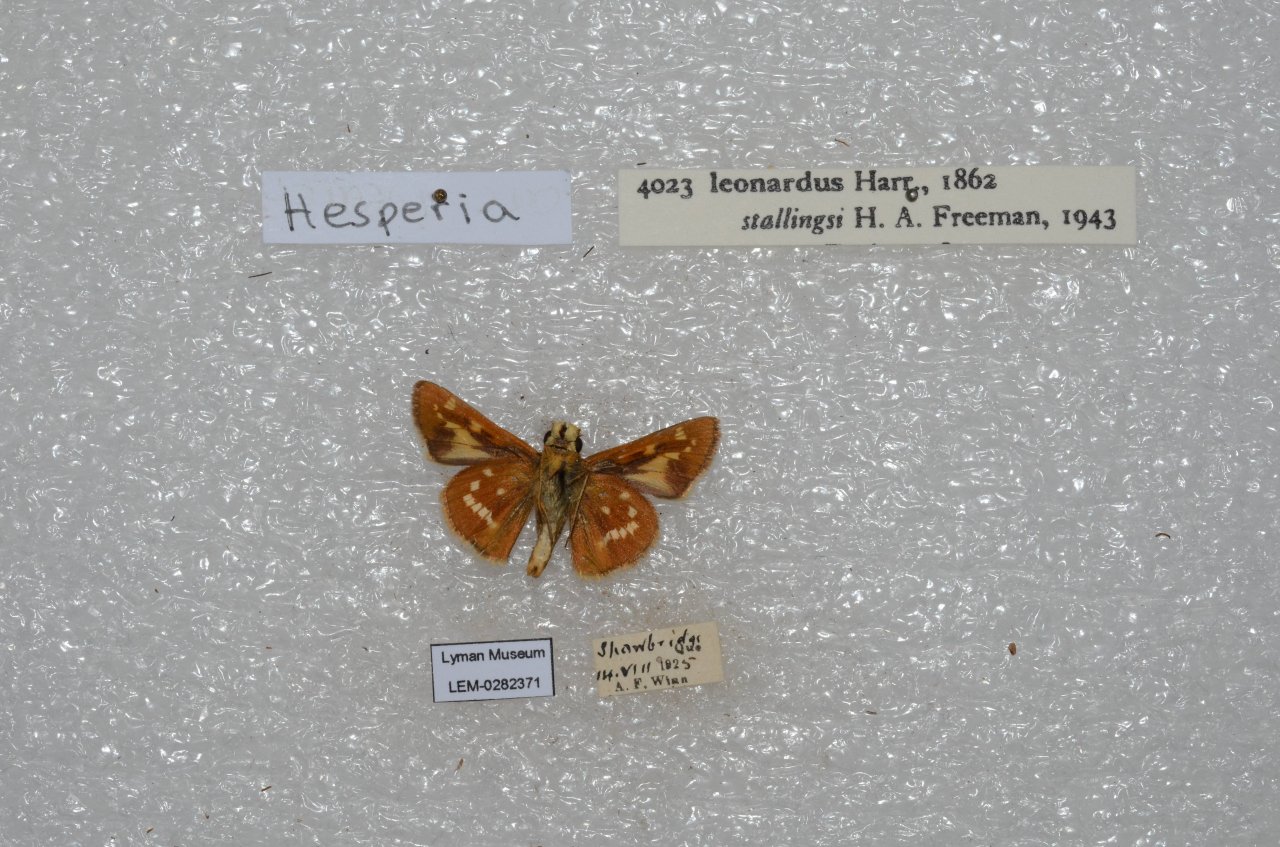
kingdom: Animalia
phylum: Arthropoda
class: Insecta
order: Lepidoptera
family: Hesperiidae
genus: Hesperia
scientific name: Hesperia leonardus
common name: Leonard's Skipper
